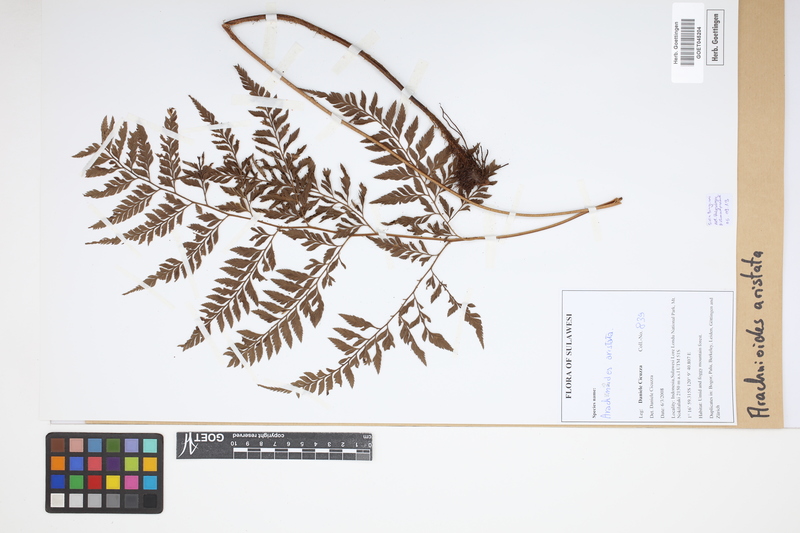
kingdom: Plantae
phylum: Tracheophyta
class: Polypodiopsida
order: Polypodiales
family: Dryopteridaceae
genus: Arachniodes
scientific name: Arachniodes aristata
